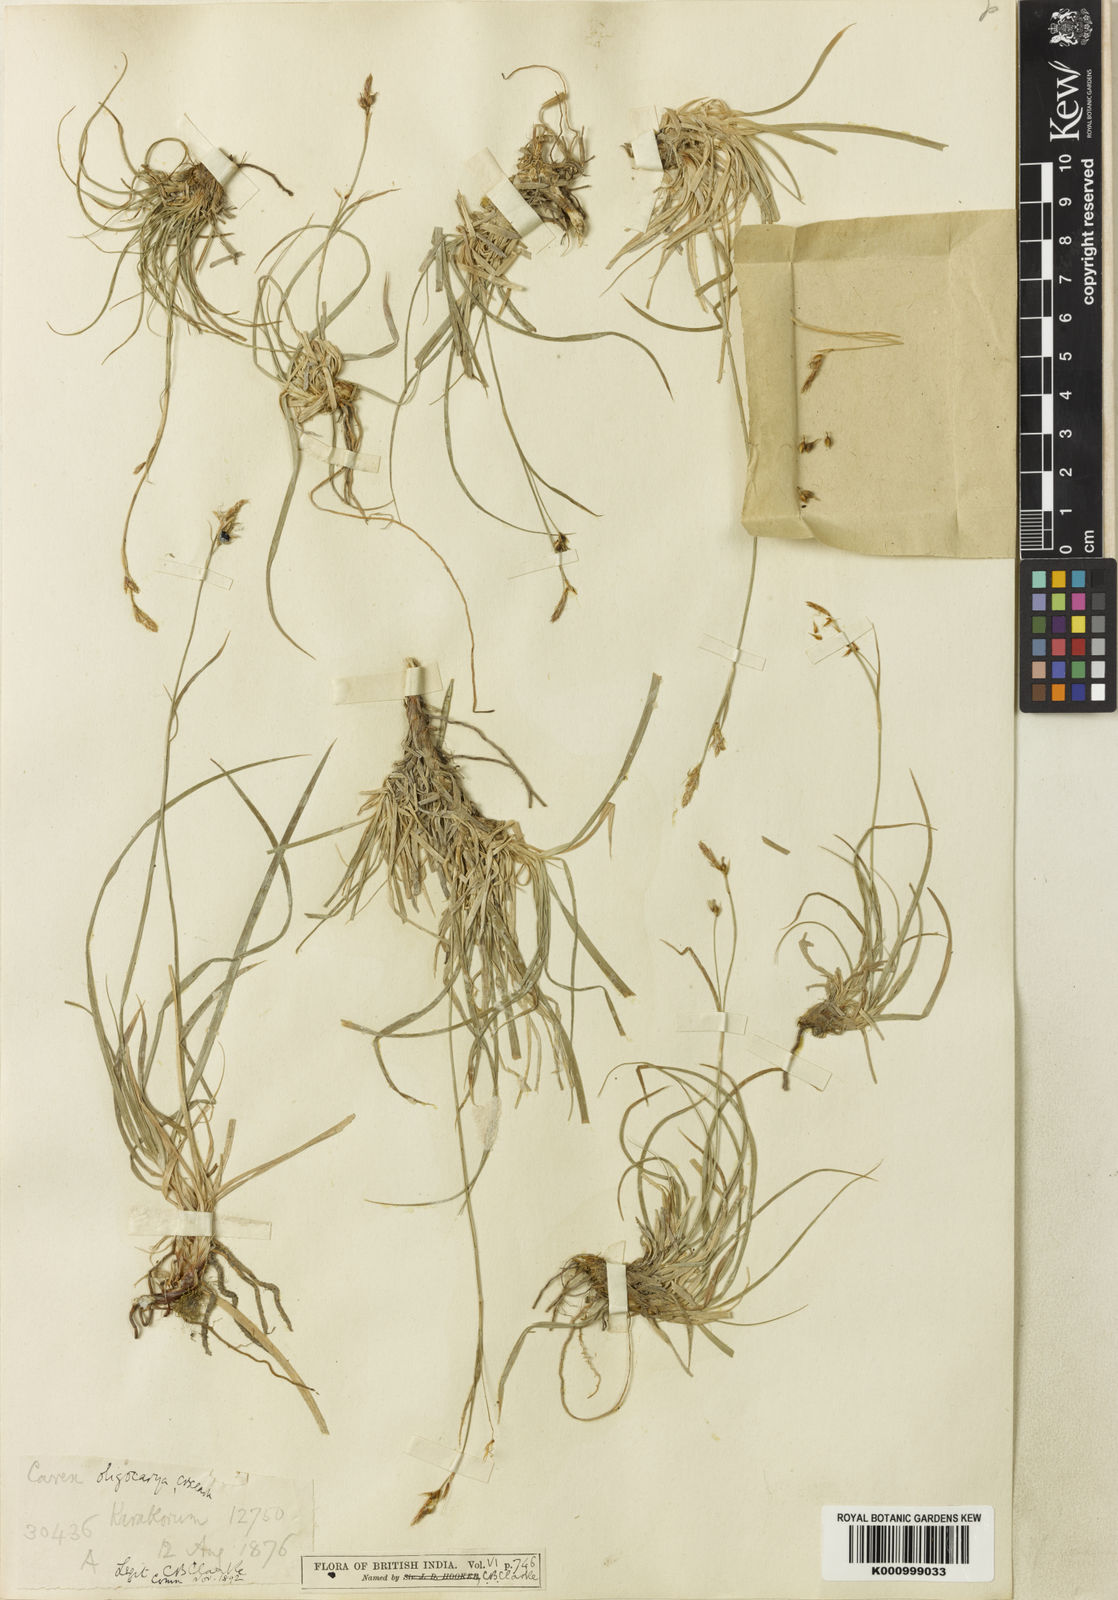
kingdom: Plantae
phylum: Tracheophyta
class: Liliopsida
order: Poales
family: Cyperaceae
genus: Carex
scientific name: Carex
